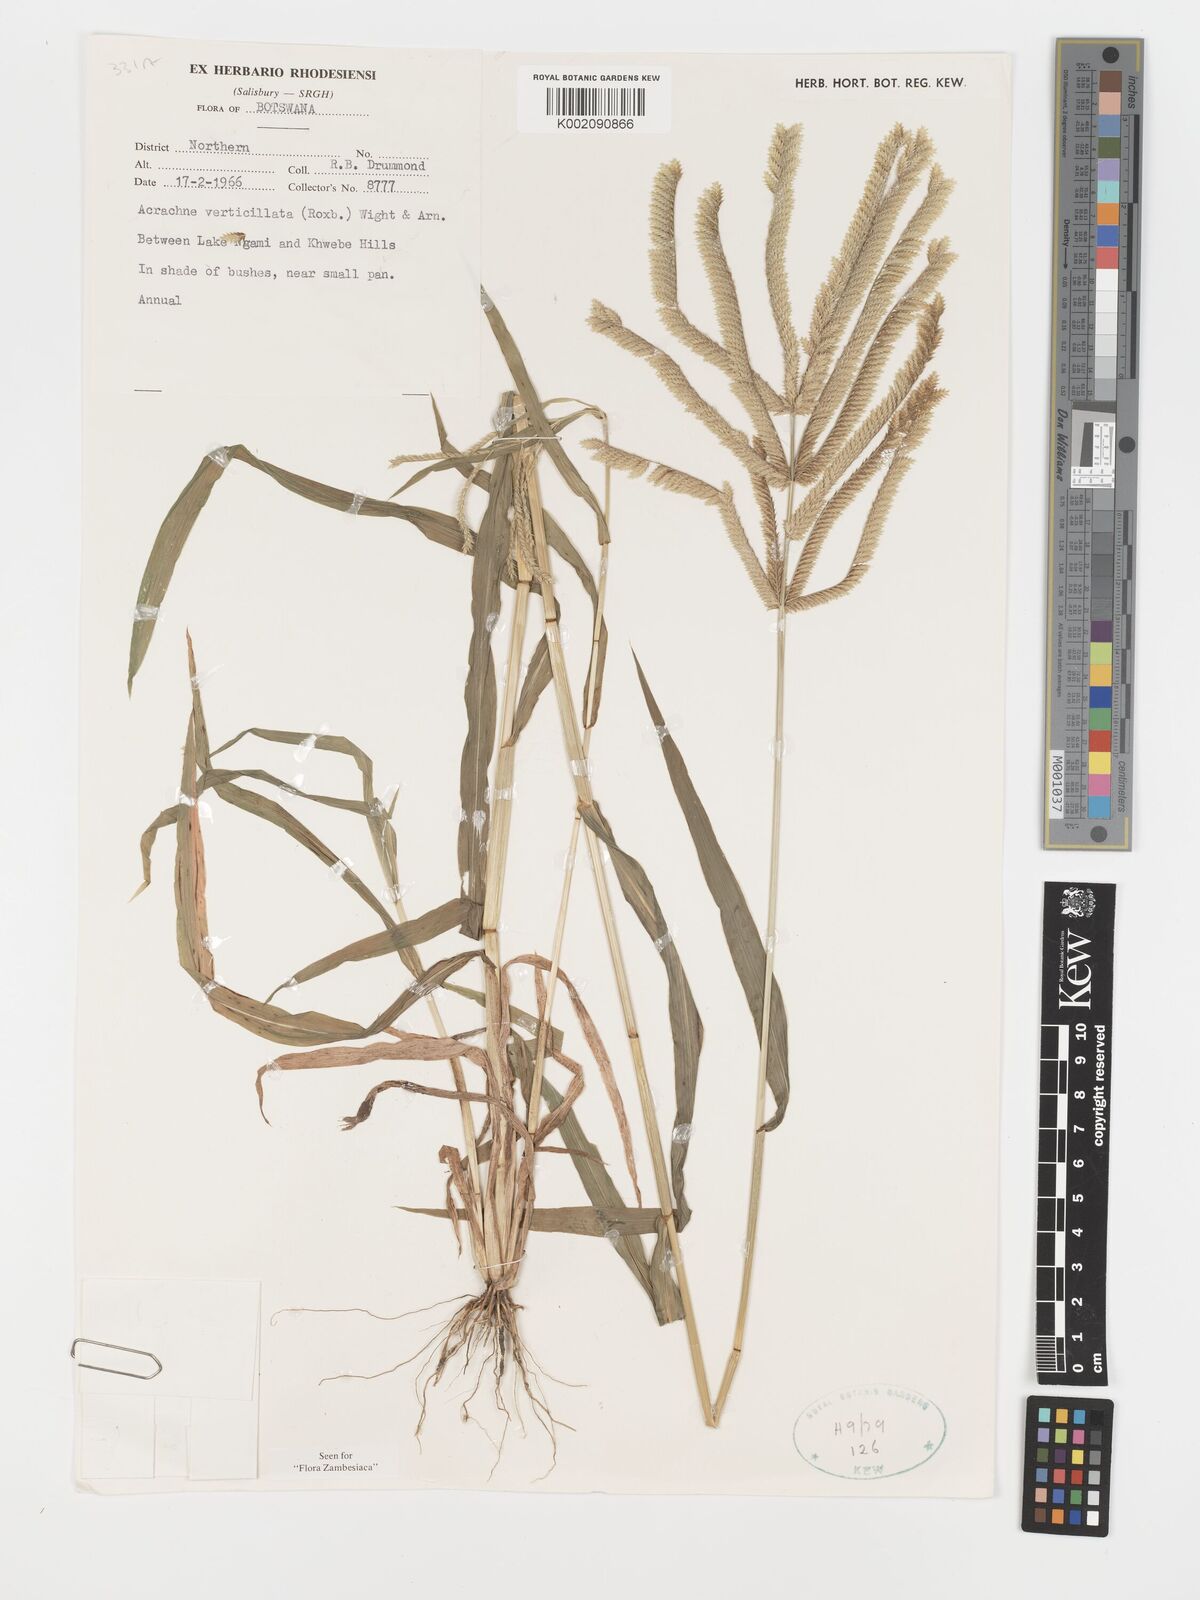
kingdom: Plantae
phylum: Tracheophyta
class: Liliopsida
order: Poales
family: Poaceae
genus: Acrachne
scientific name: Acrachne racemosa
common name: Goosegrass
